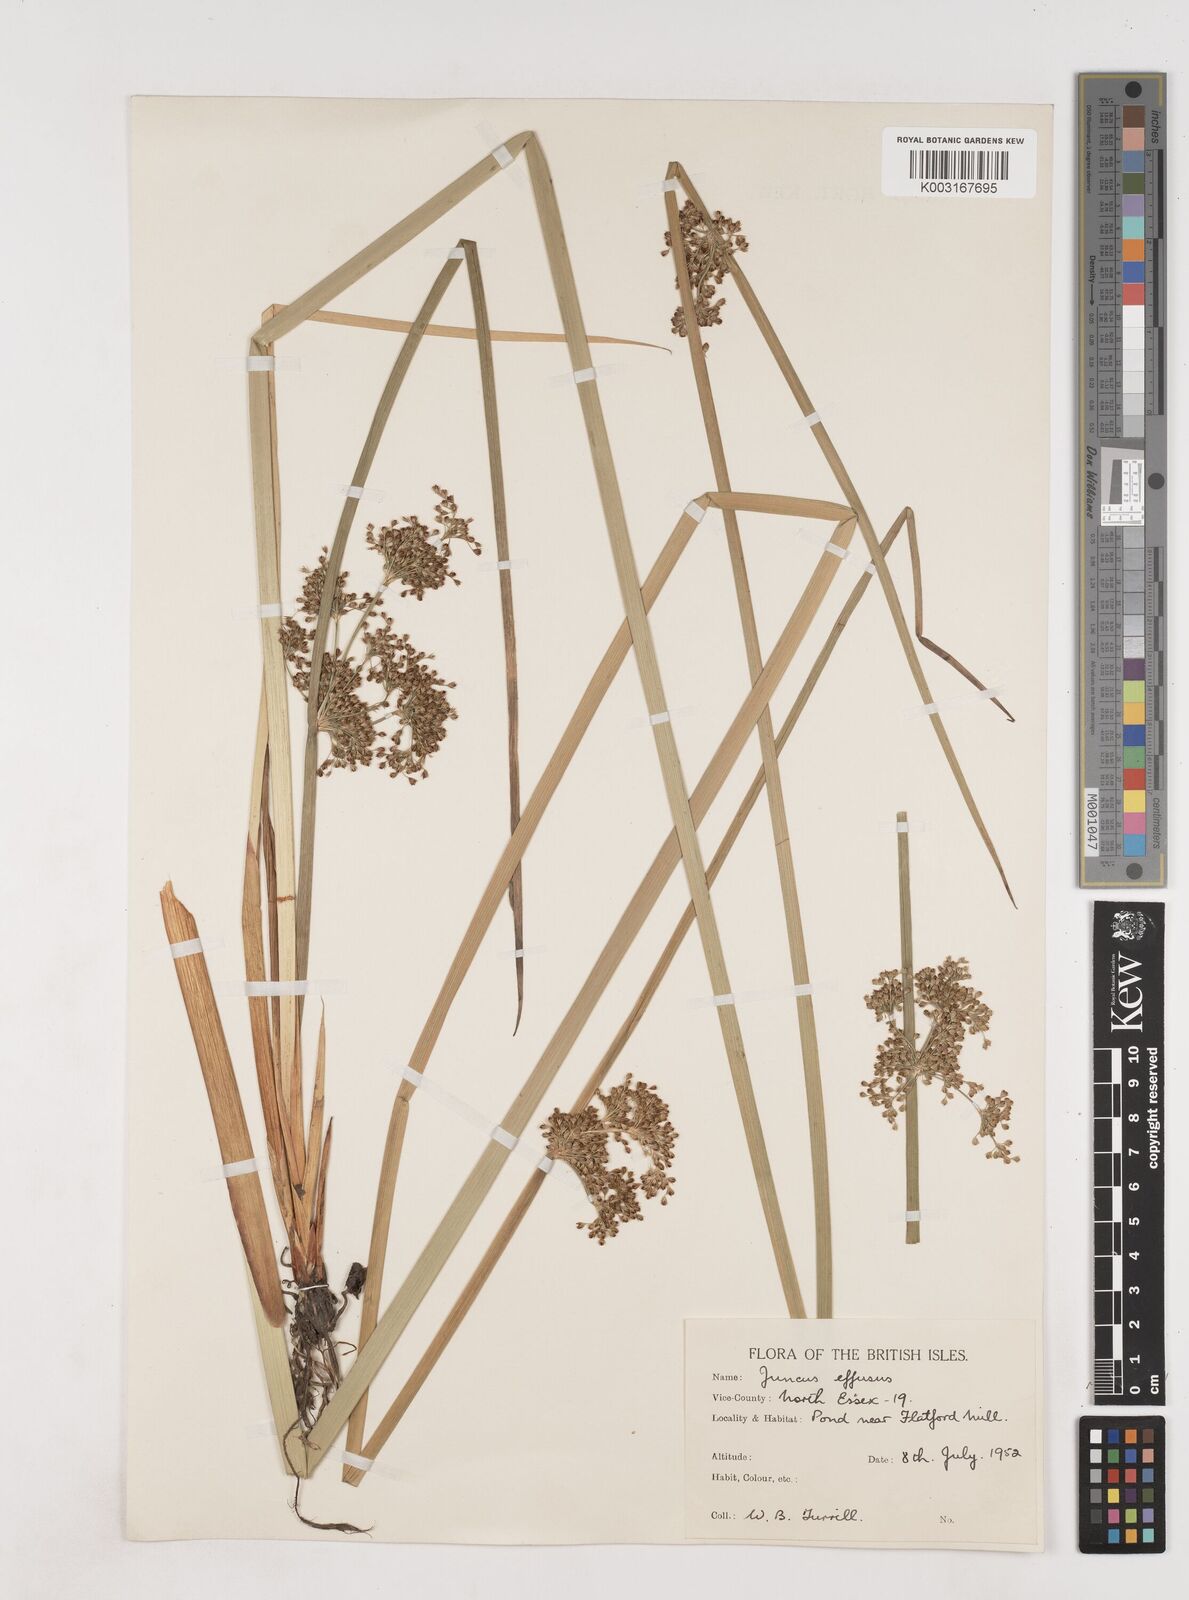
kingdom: Plantae
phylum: Tracheophyta
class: Liliopsida
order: Poales
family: Juncaceae
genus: Juncus
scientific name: Juncus effusus
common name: Soft rush
